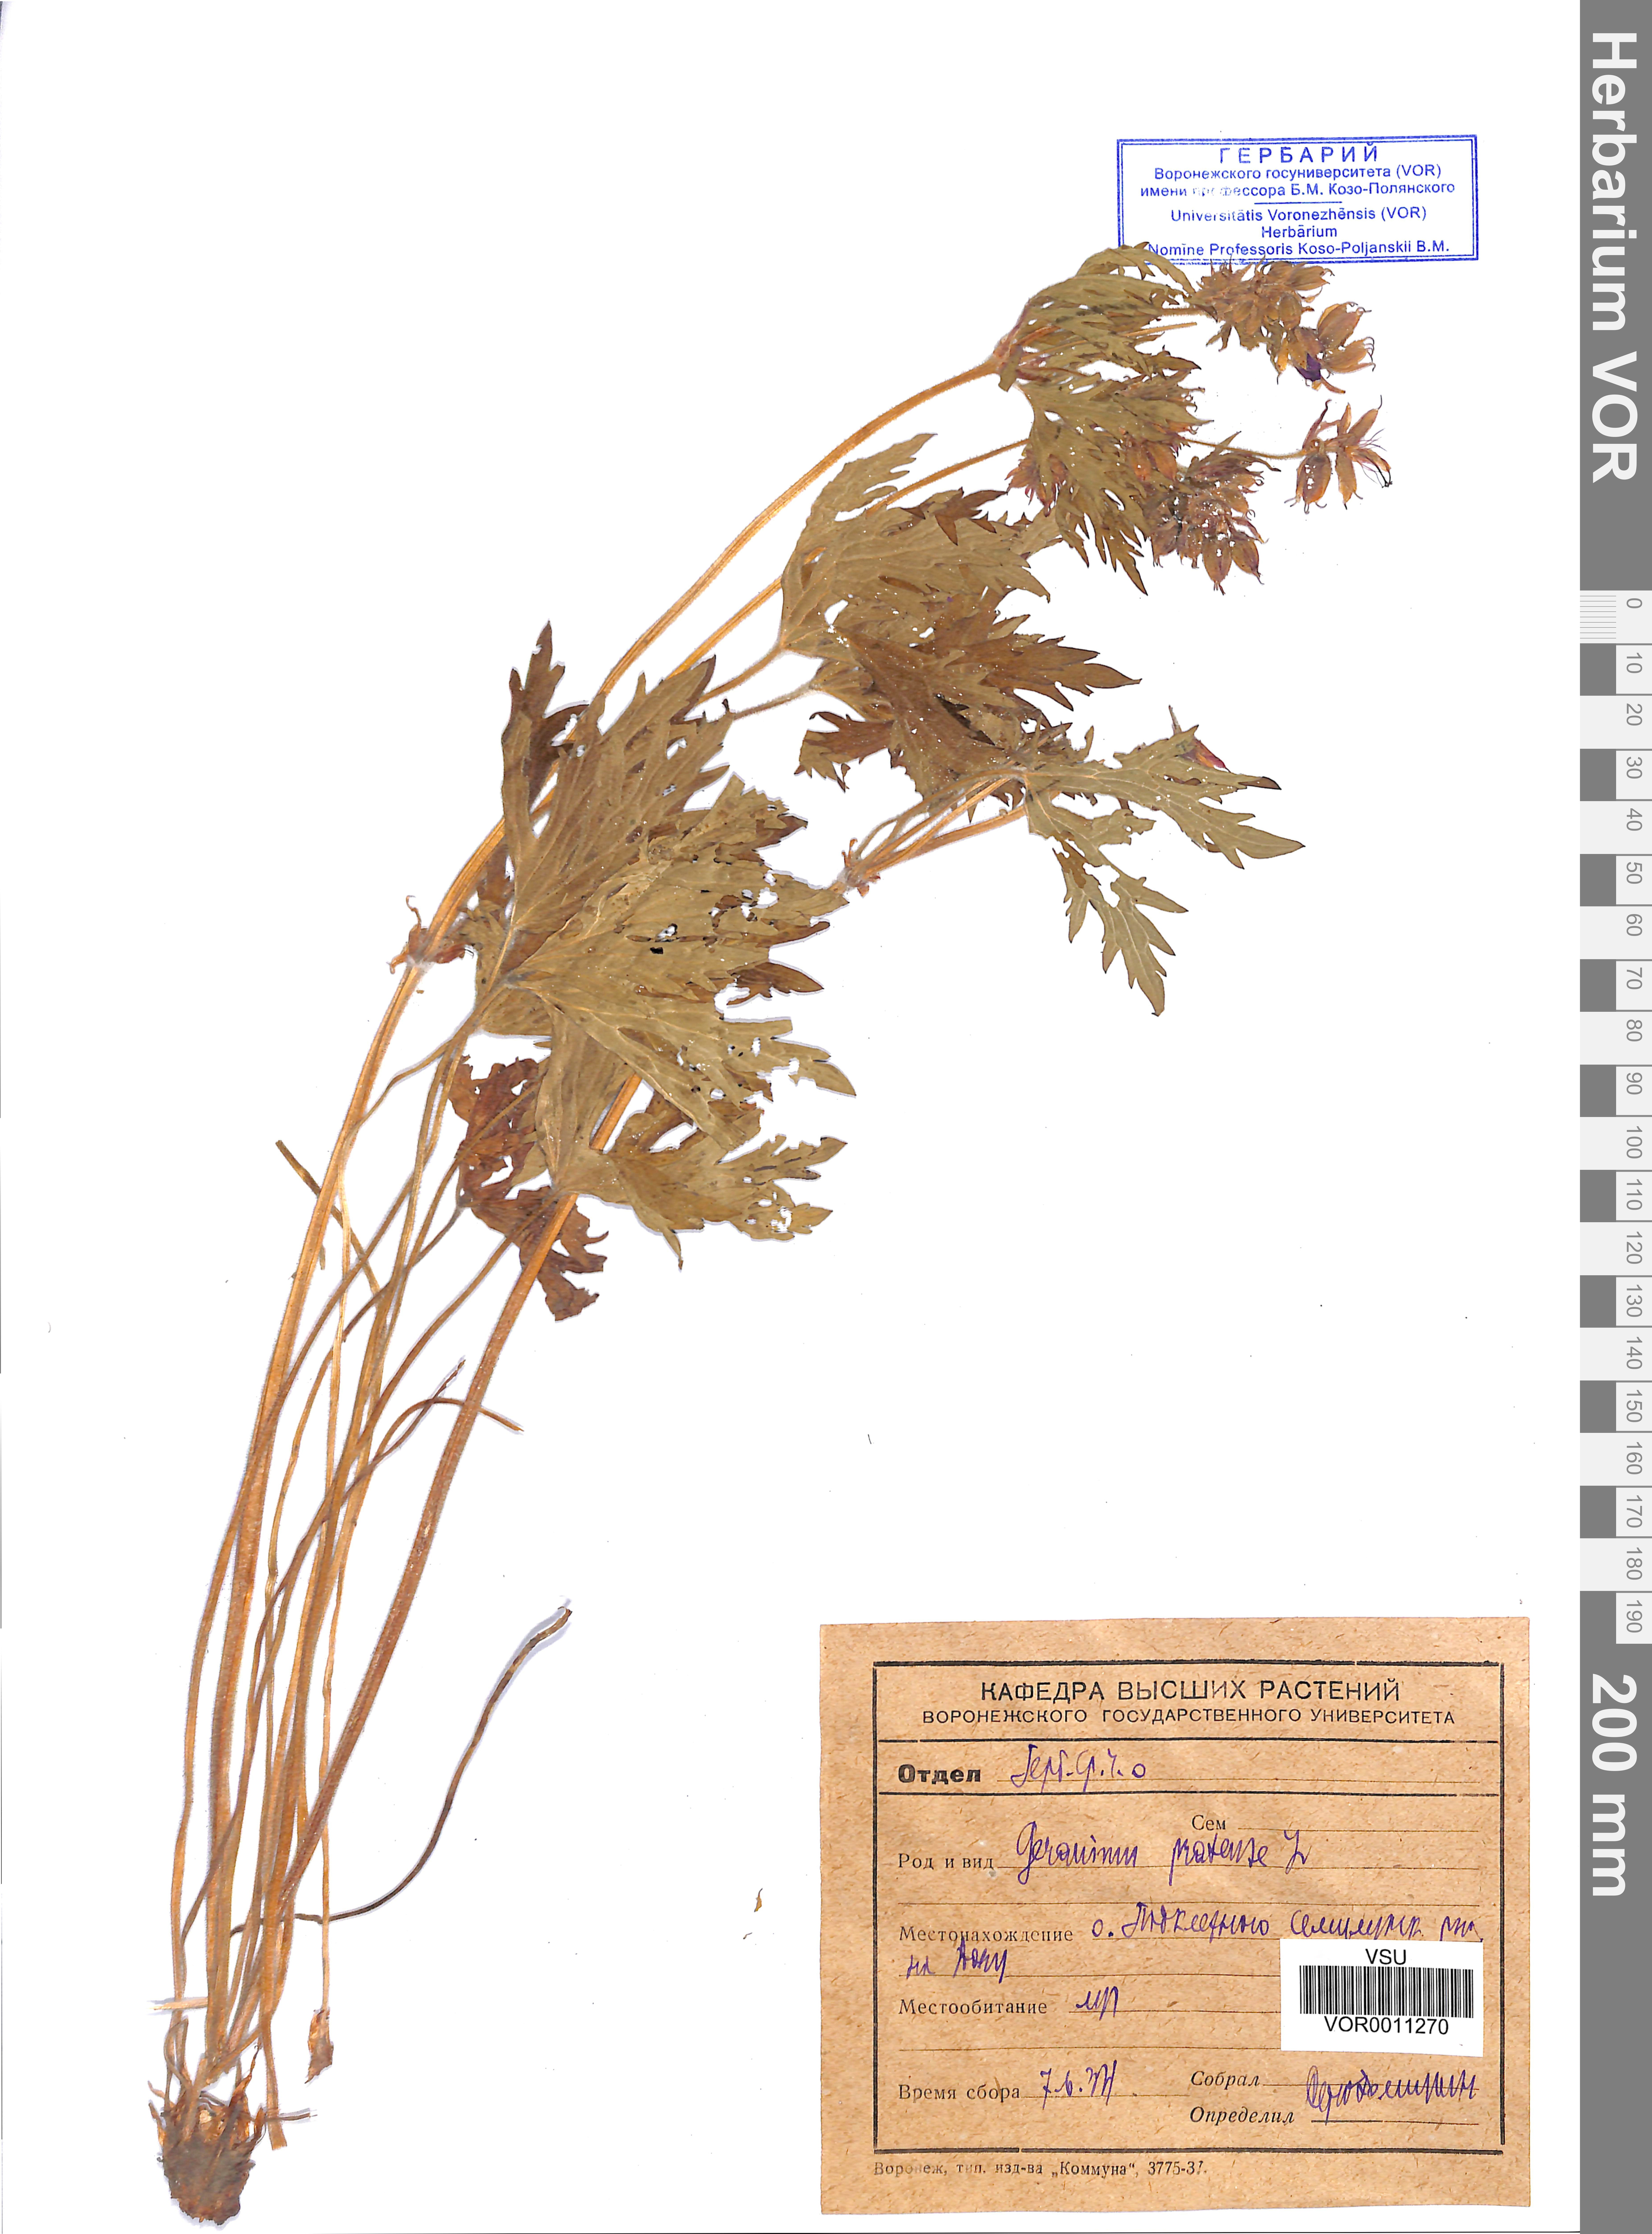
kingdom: Plantae
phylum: Tracheophyta
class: Magnoliopsida
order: Geraniales
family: Geraniaceae
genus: Geranium
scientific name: Geranium pratense
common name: Meadow crane's-bill
